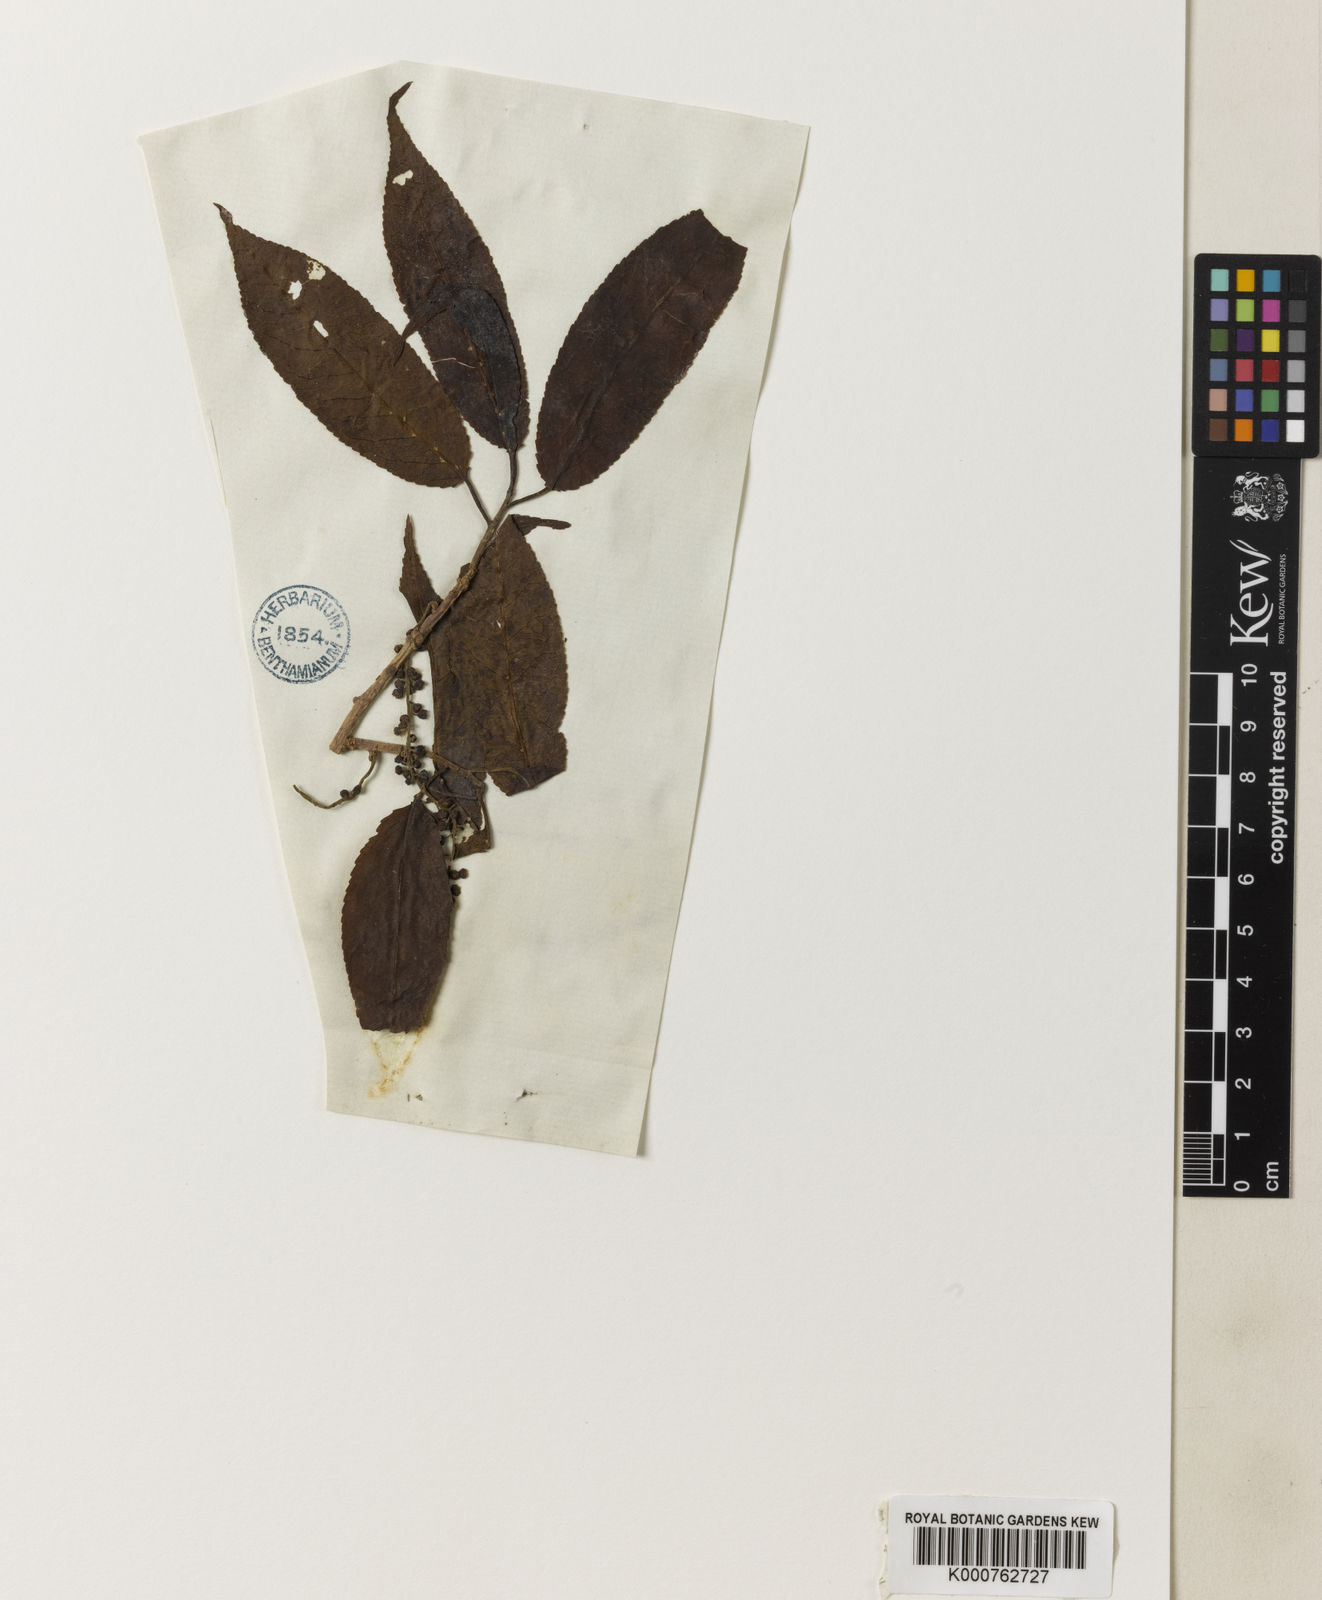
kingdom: Plantae
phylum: Tracheophyta
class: Magnoliopsida
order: Rosales
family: Rosaceae
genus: Prunus
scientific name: Prunus
